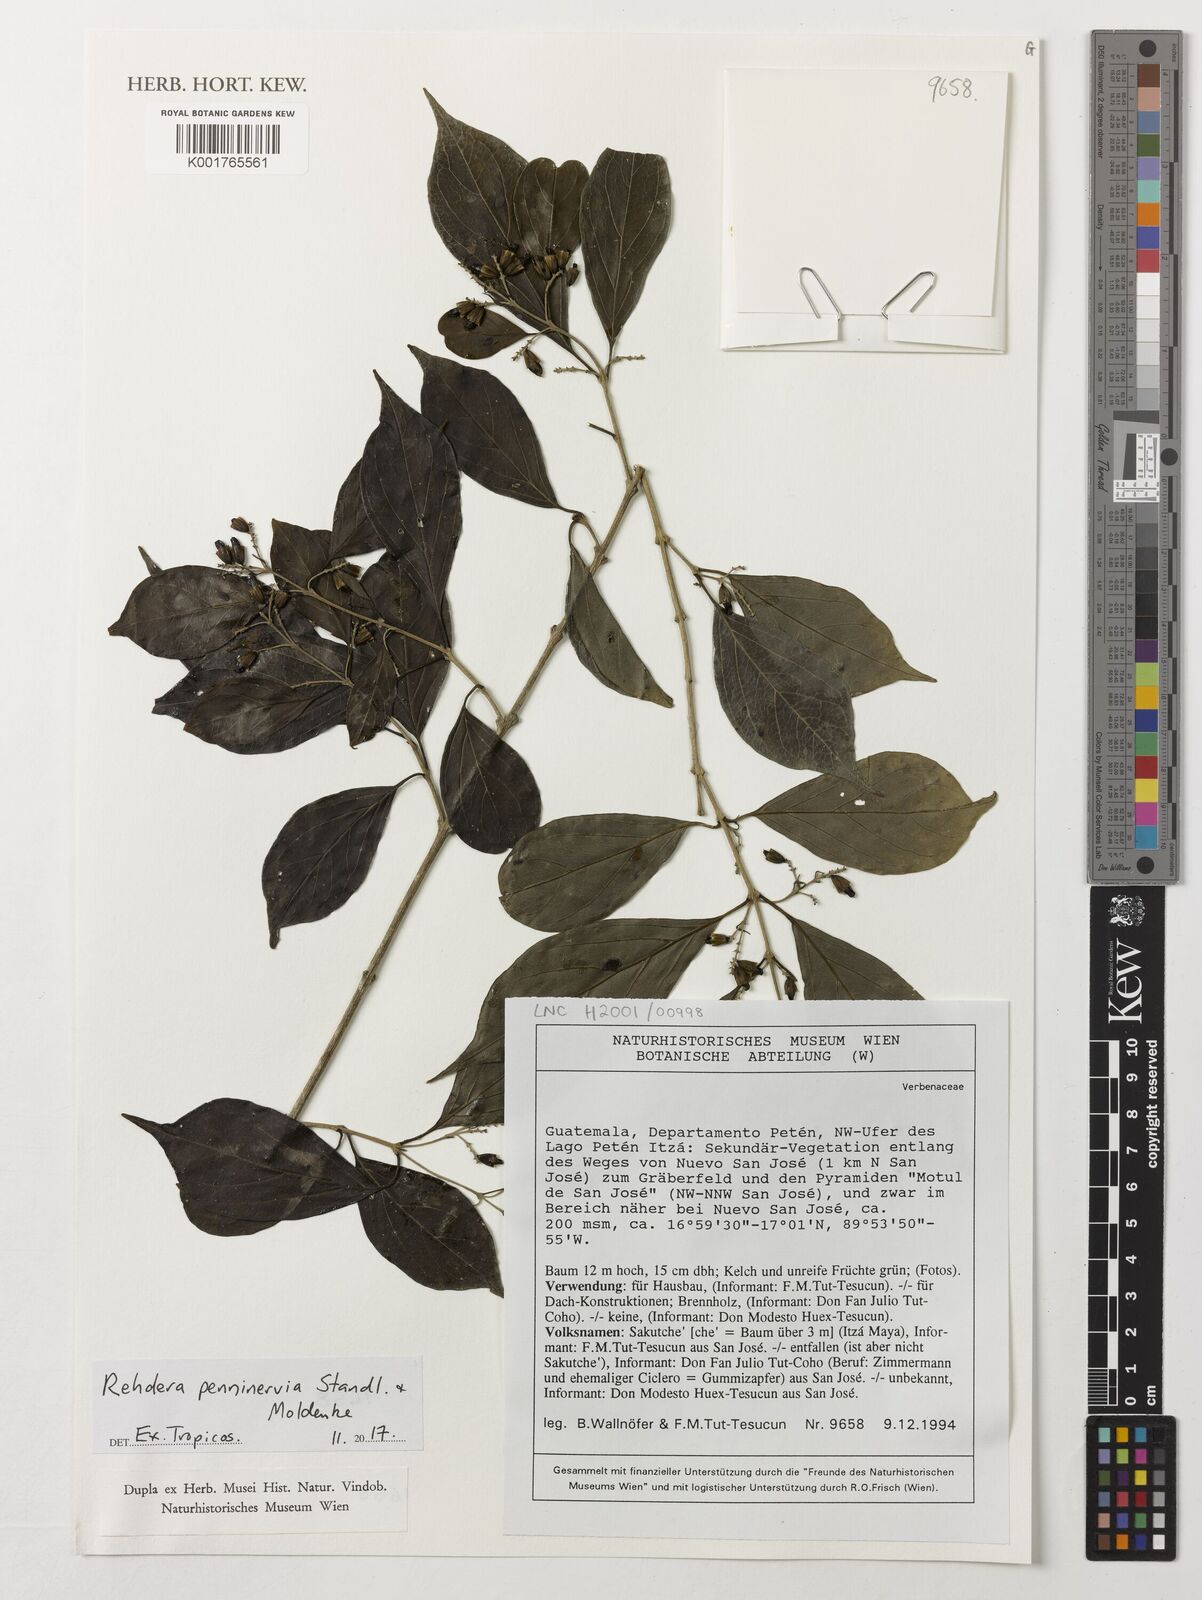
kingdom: Plantae
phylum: Tracheophyta
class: Magnoliopsida
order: Lamiales
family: Verbenaceae
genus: Rehdera
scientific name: Rehdera penninervia
